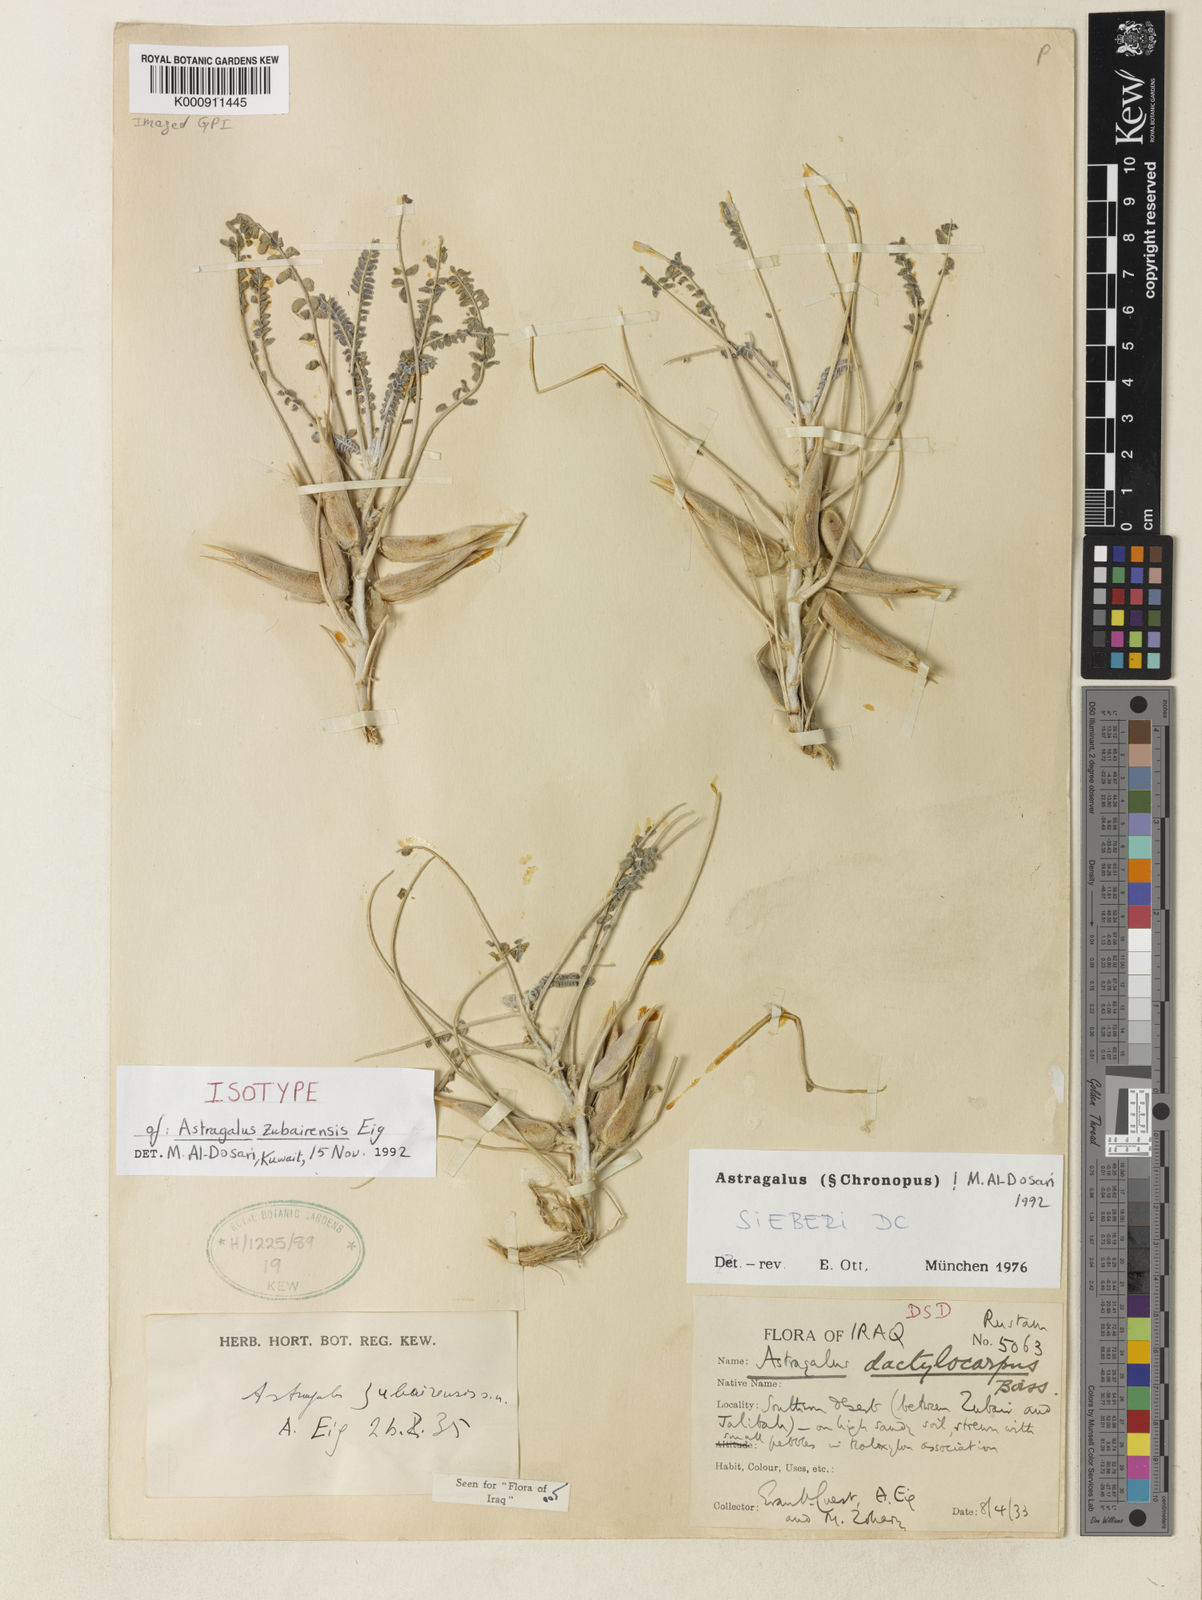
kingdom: Plantae
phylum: Tracheophyta
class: Magnoliopsida
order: Fabales
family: Fabaceae
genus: Astragalus
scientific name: Astragalus sieberi
